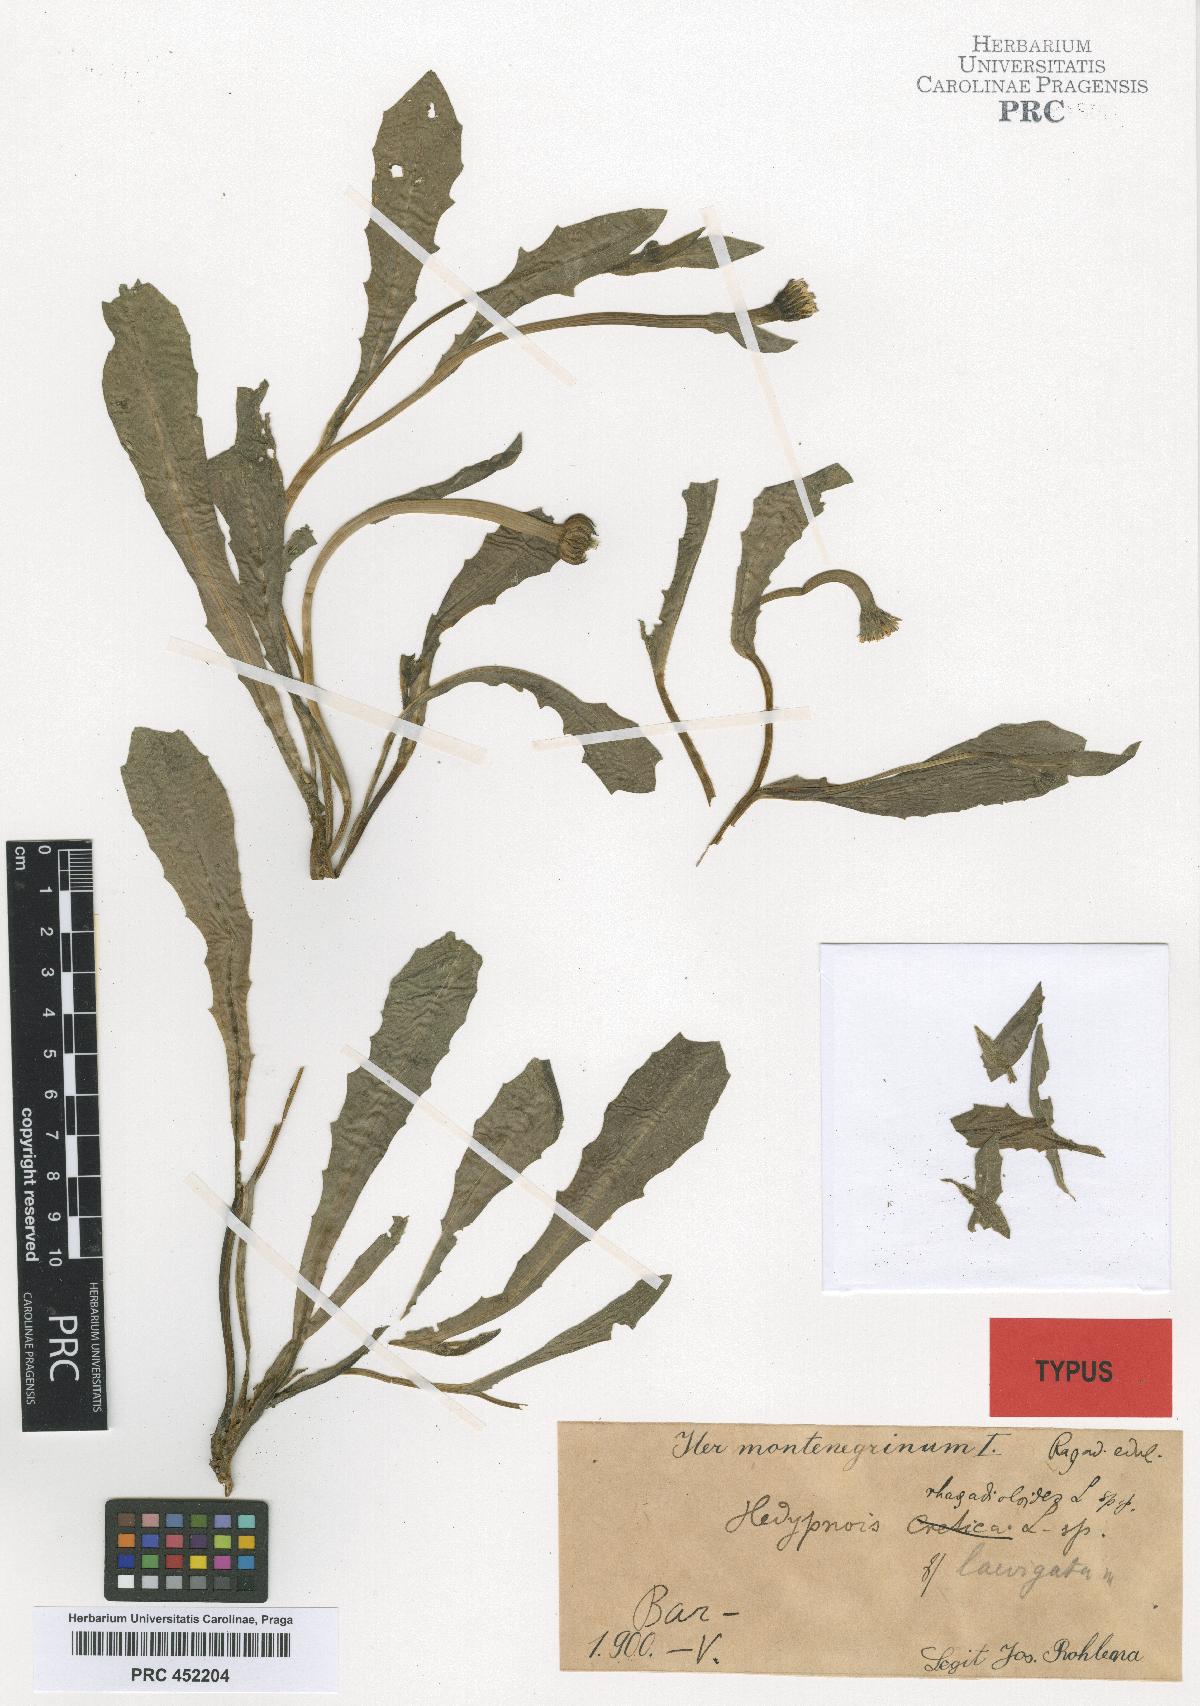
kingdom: Plantae
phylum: Tracheophyta
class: Magnoliopsida
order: Asterales
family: Asteraceae
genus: Hedypnois
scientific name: Hedypnois rhagadioloides
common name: Cretan weed
